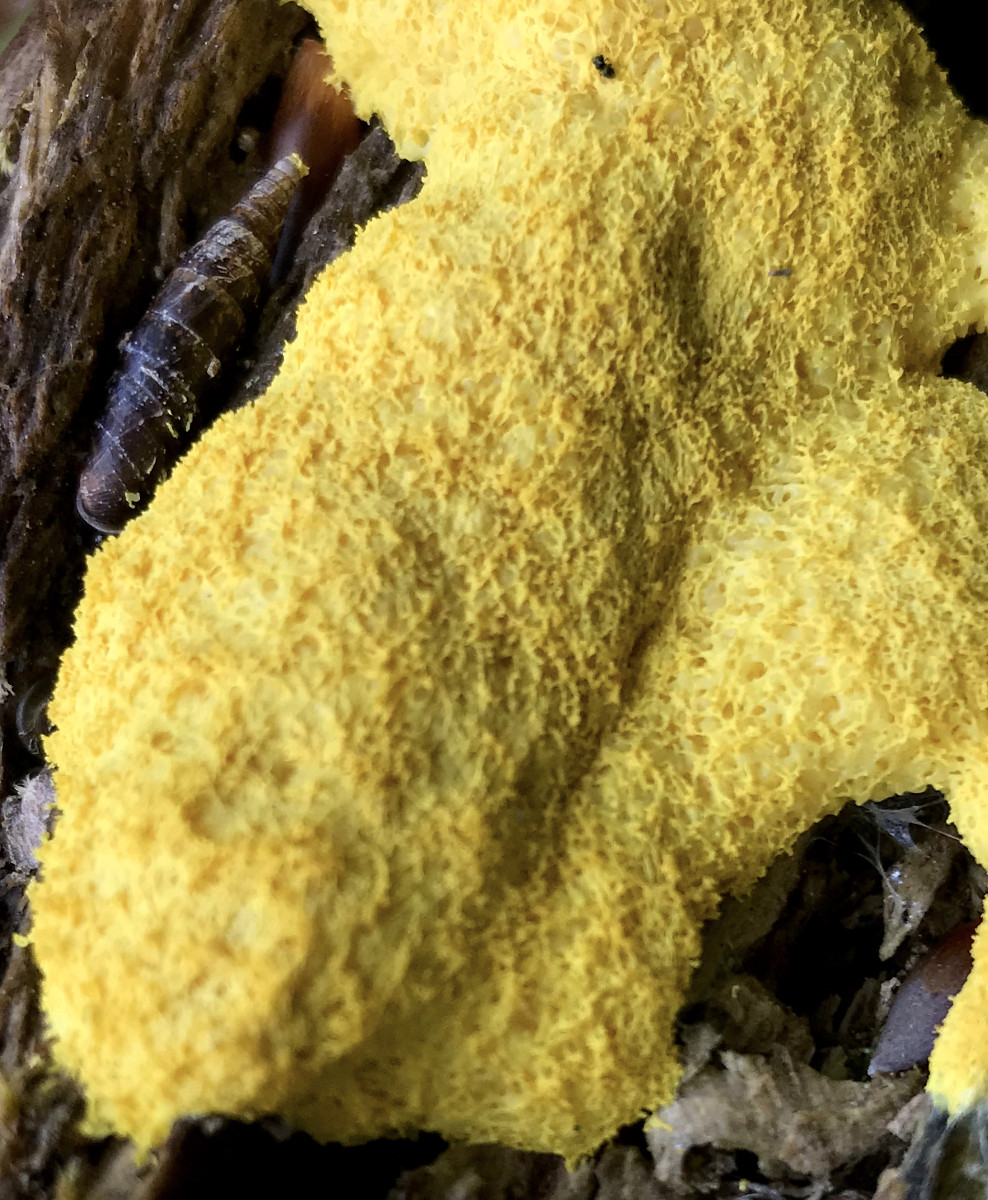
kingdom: Protozoa
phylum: Mycetozoa
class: Myxomycetes
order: Physarales
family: Physaraceae
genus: Fuligo
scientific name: Fuligo septica
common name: gul troldsmør
